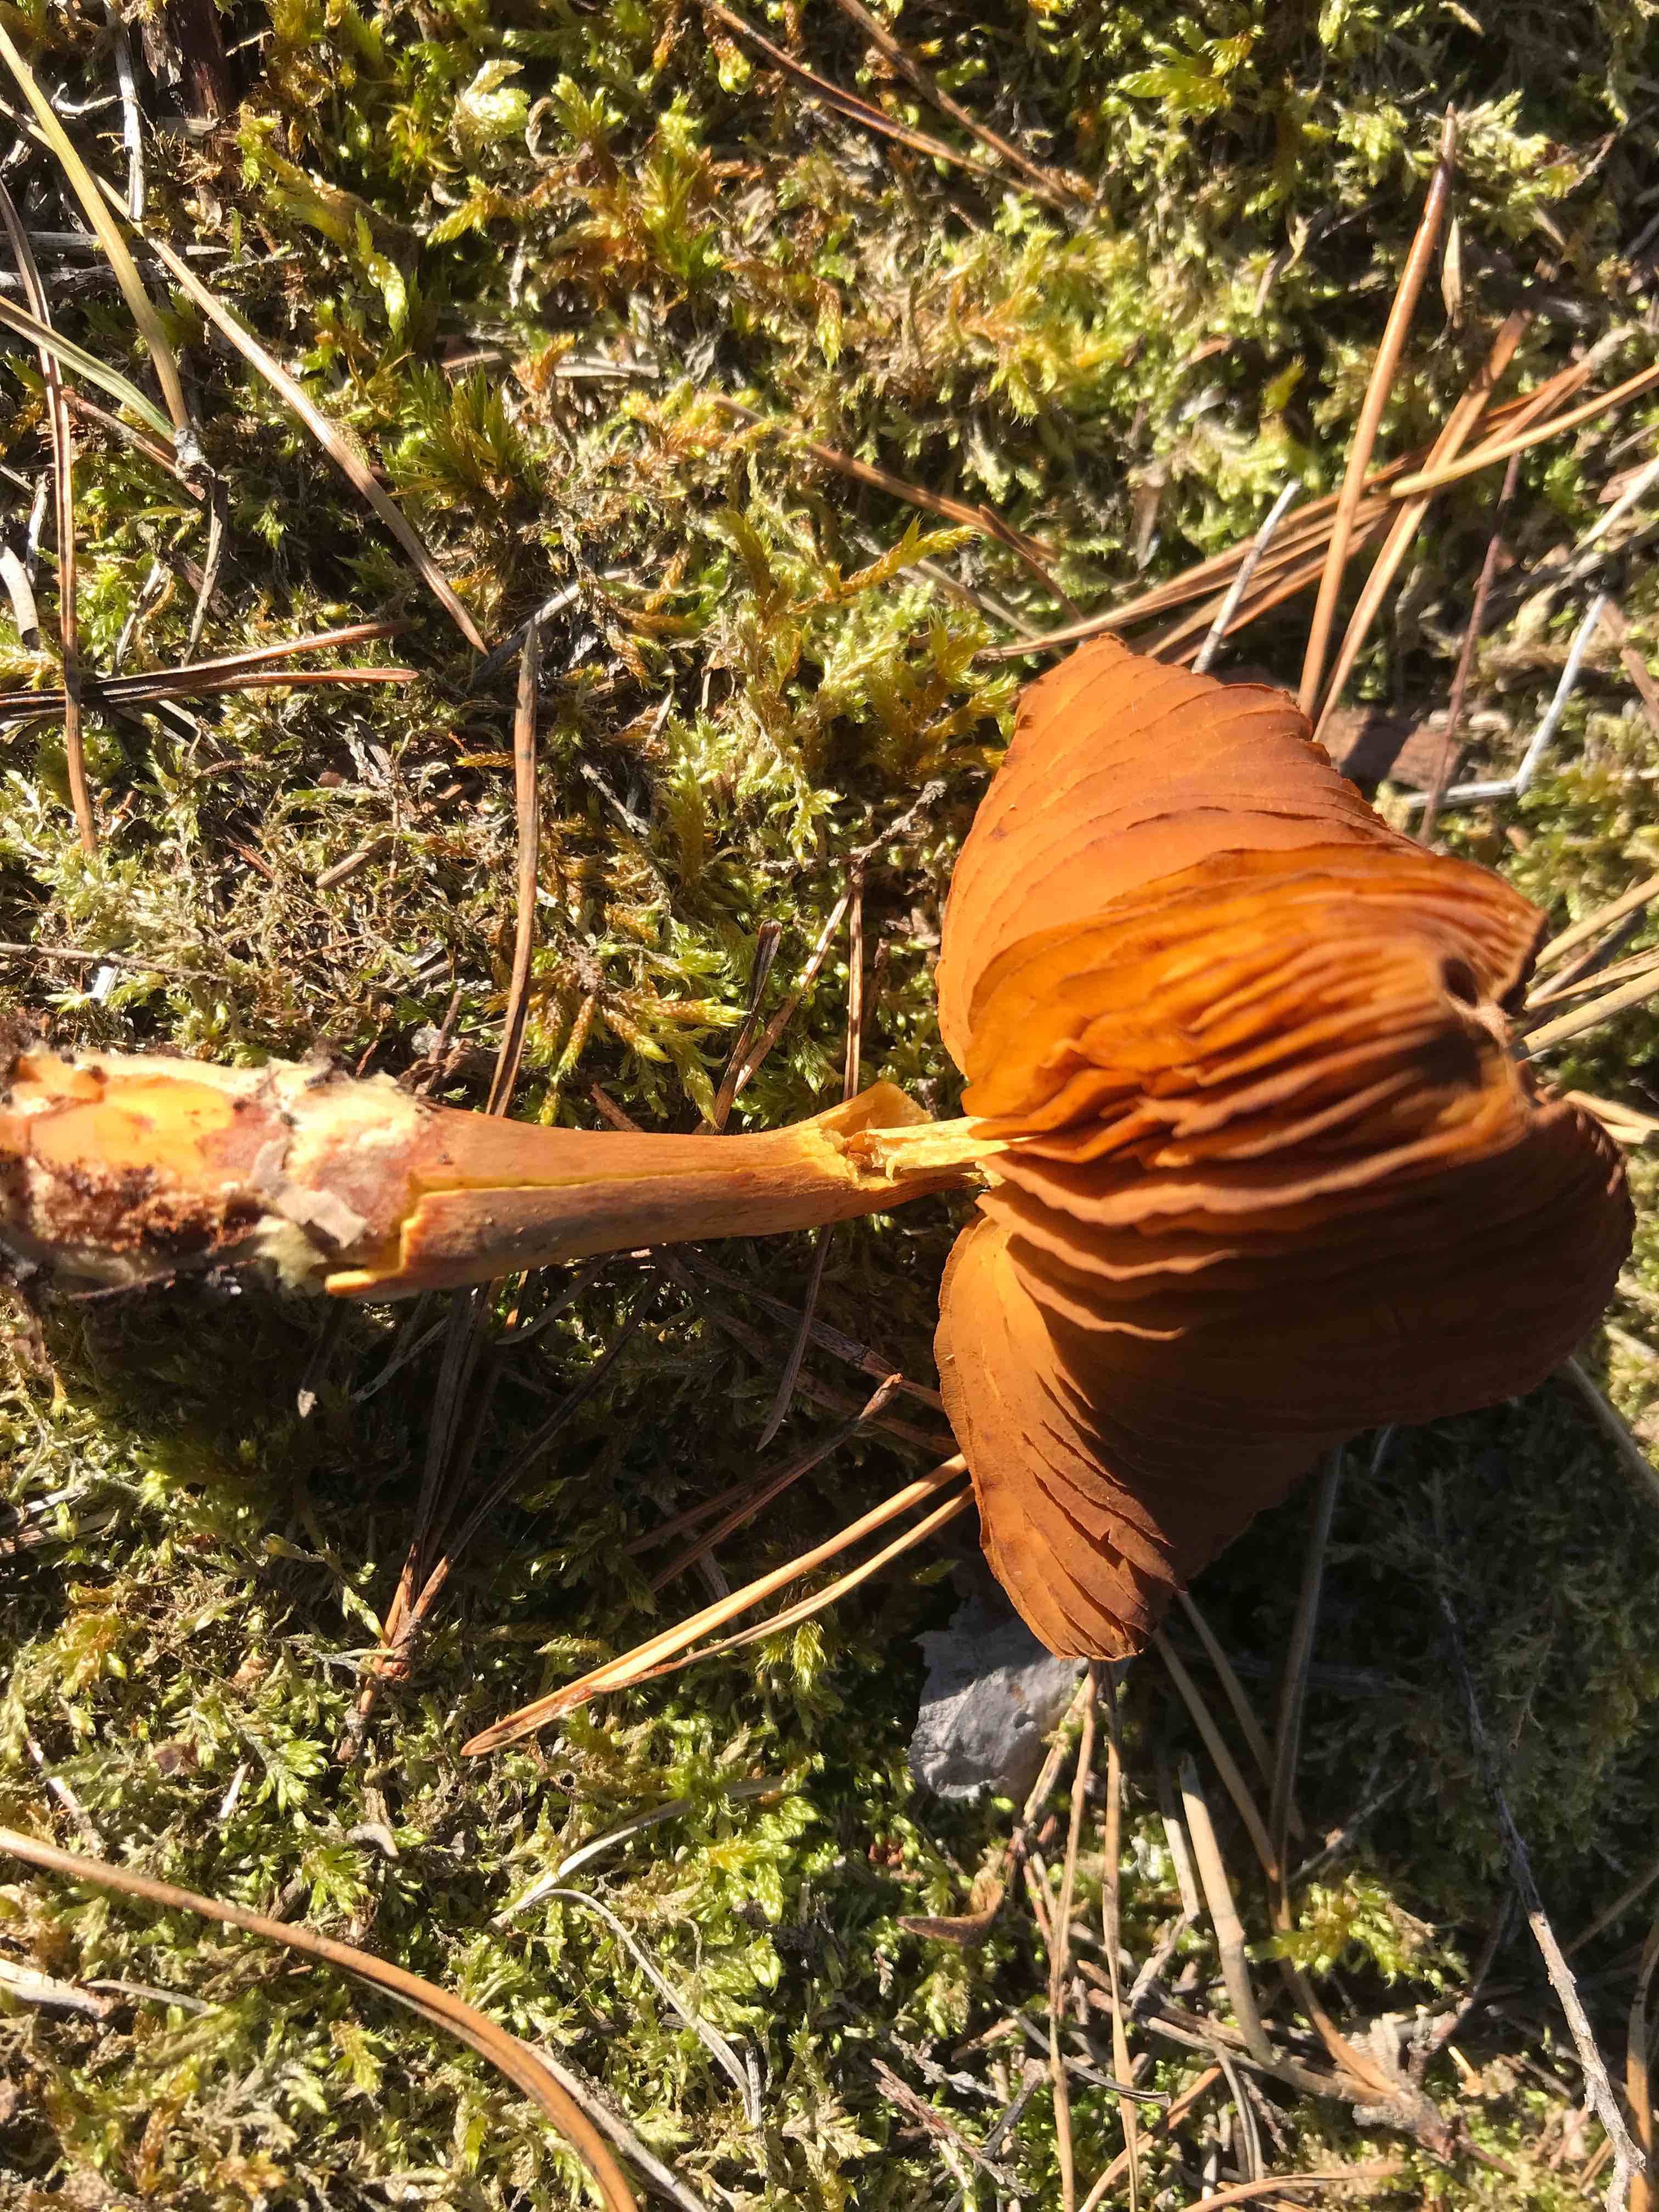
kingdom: Fungi
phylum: Basidiomycota
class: Agaricomycetes
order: Agaricales
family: Cortinariaceae
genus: Cortinarius
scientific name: Cortinarius
